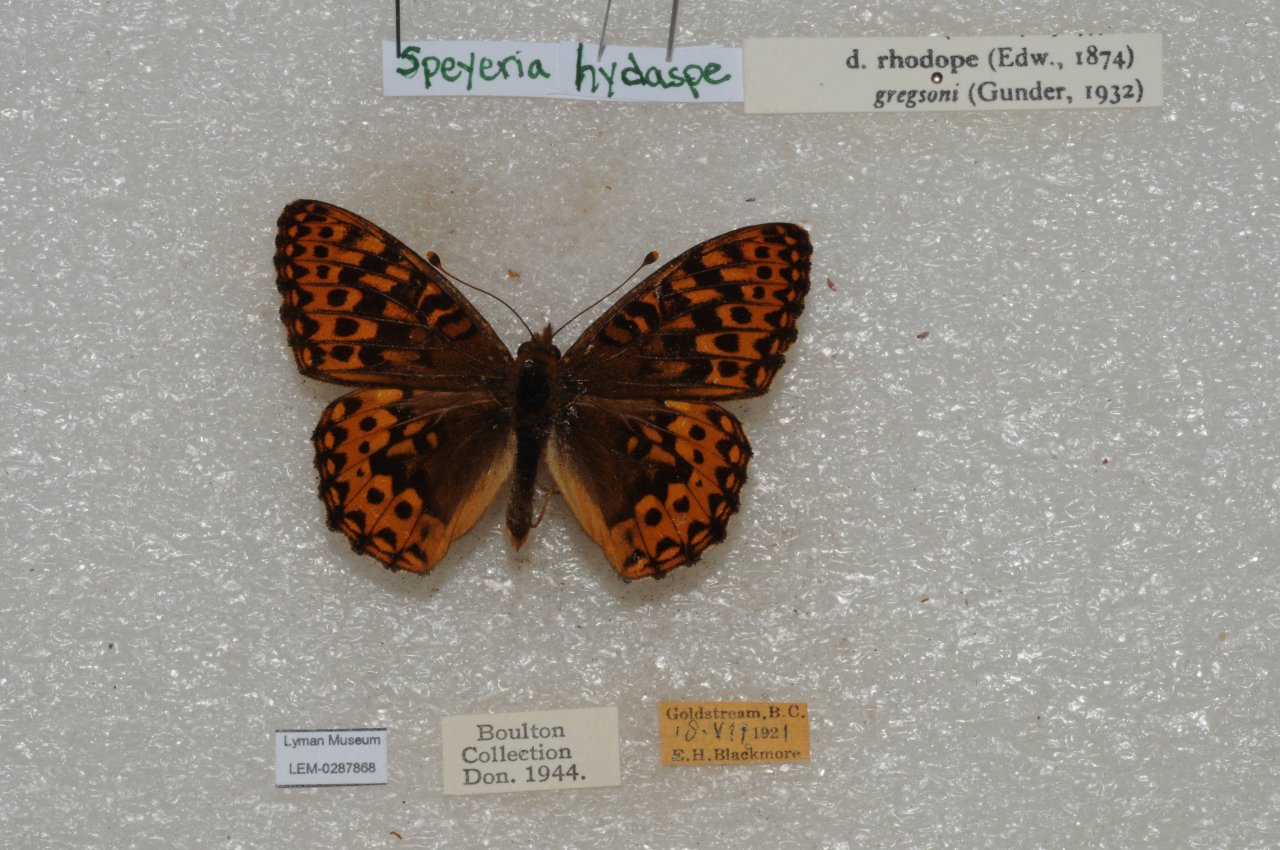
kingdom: Animalia
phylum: Arthropoda
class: Insecta
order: Lepidoptera
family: Nymphalidae
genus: Speyeria
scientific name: Speyeria hydaspe
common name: Hydaspe Fritillary
